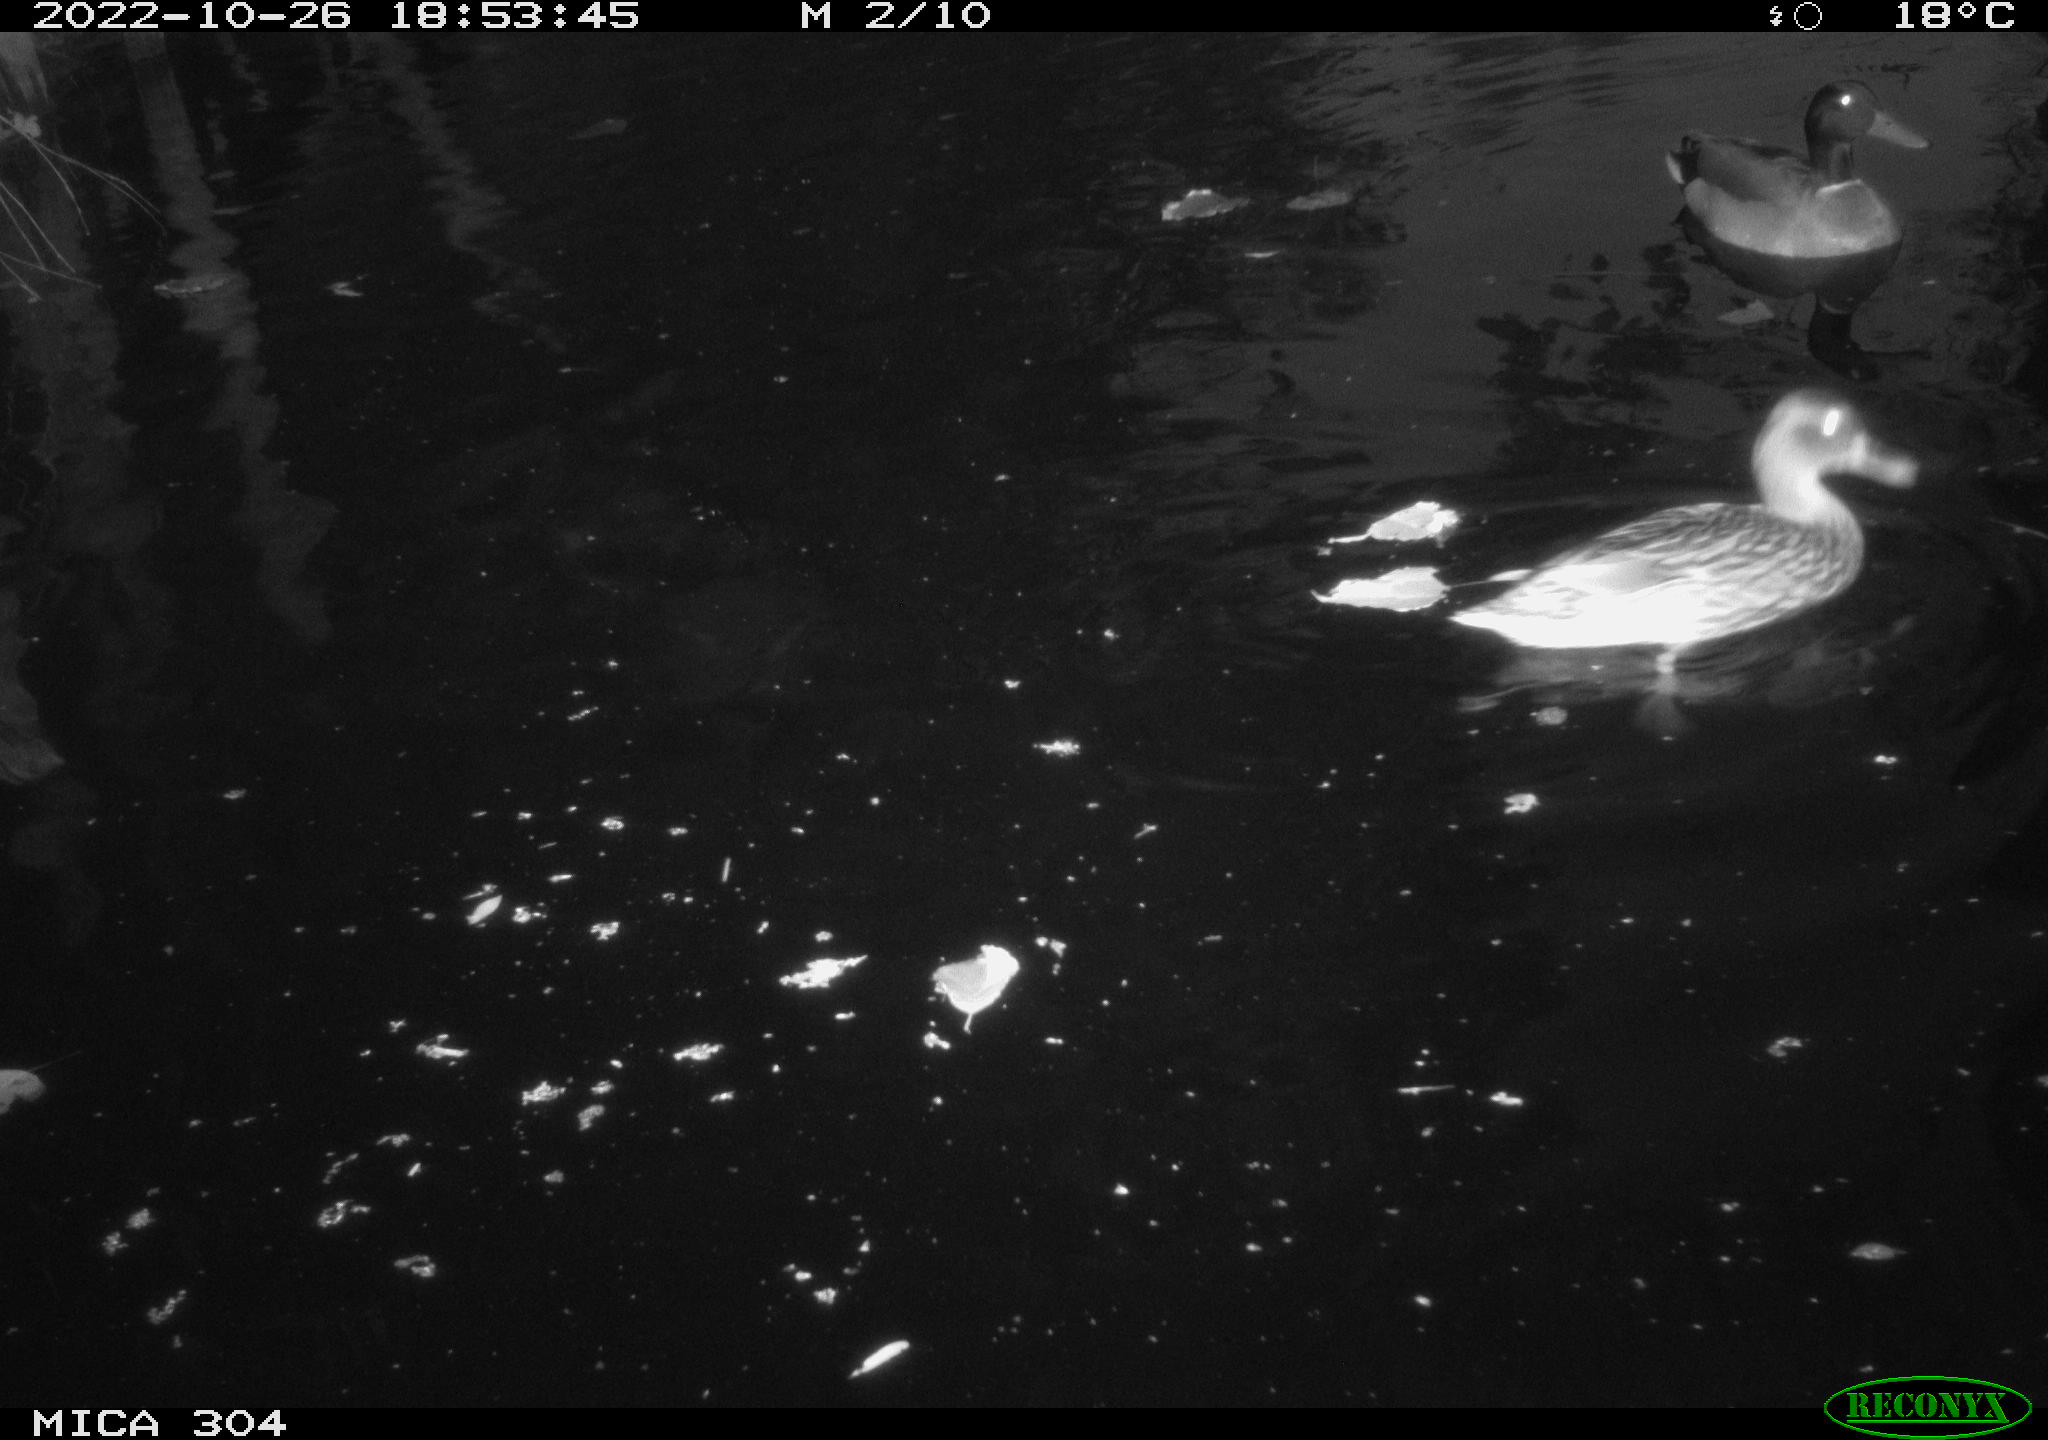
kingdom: Animalia
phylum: Chordata
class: Aves
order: Anseriformes
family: Anatidae
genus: Anas
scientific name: Anas
